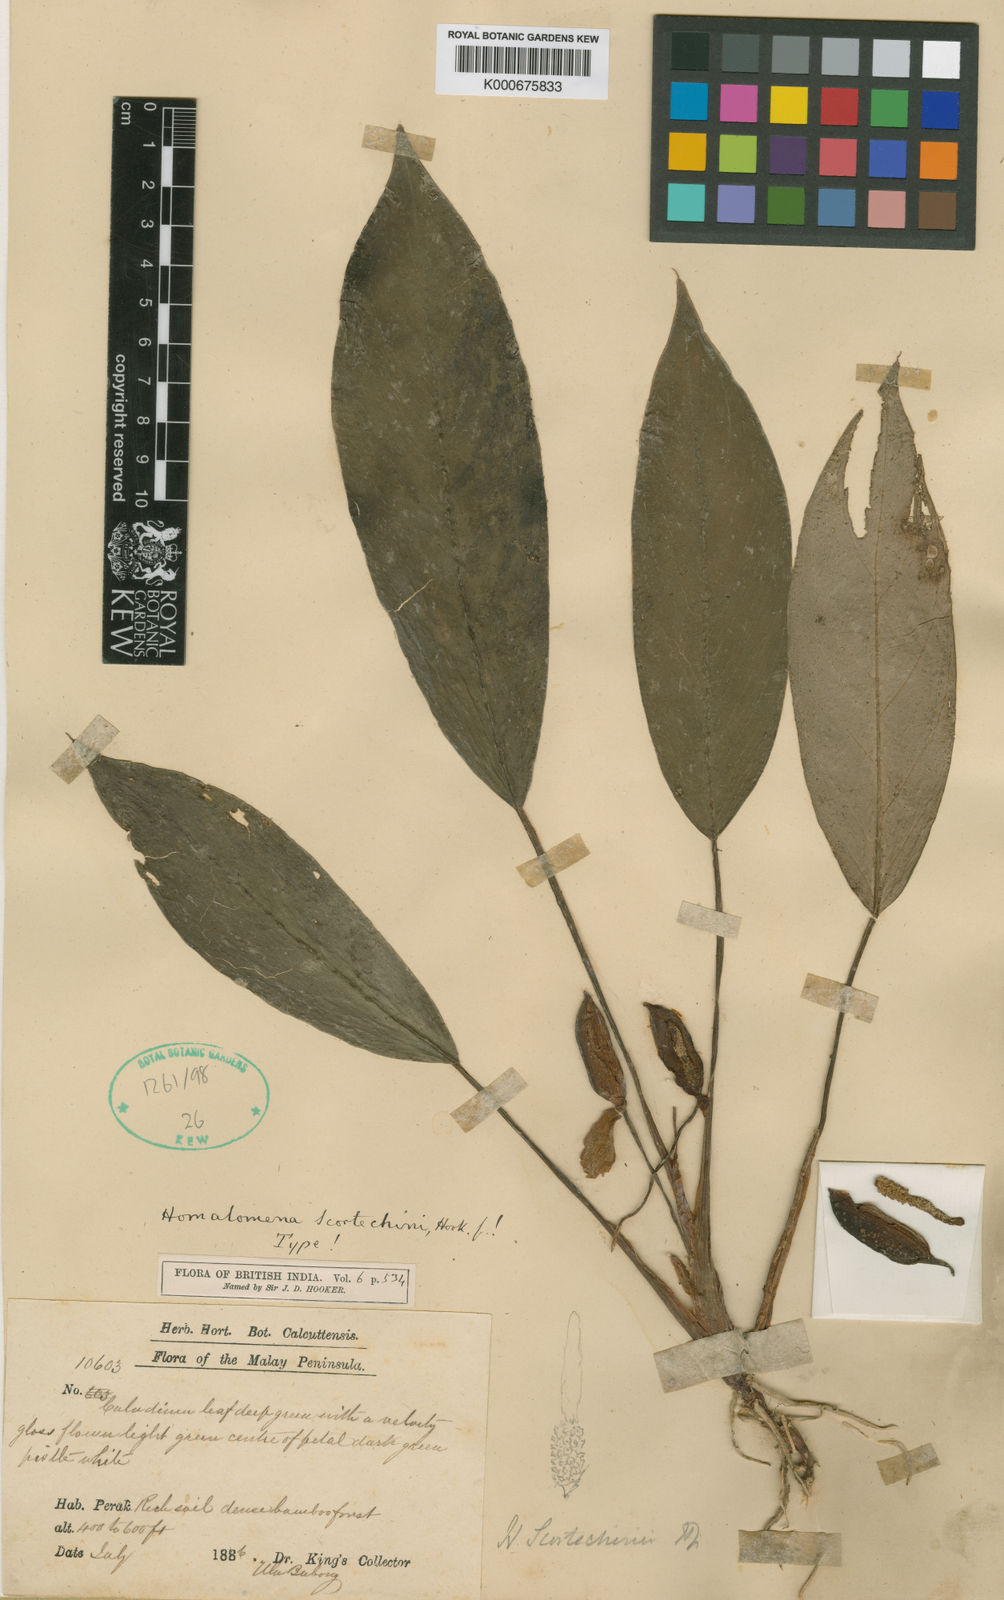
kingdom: Plantae
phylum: Tracheophyta
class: Liliopsida
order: Alismatales
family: Araceae
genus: Homalomena
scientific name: Homalomena scortechinii
